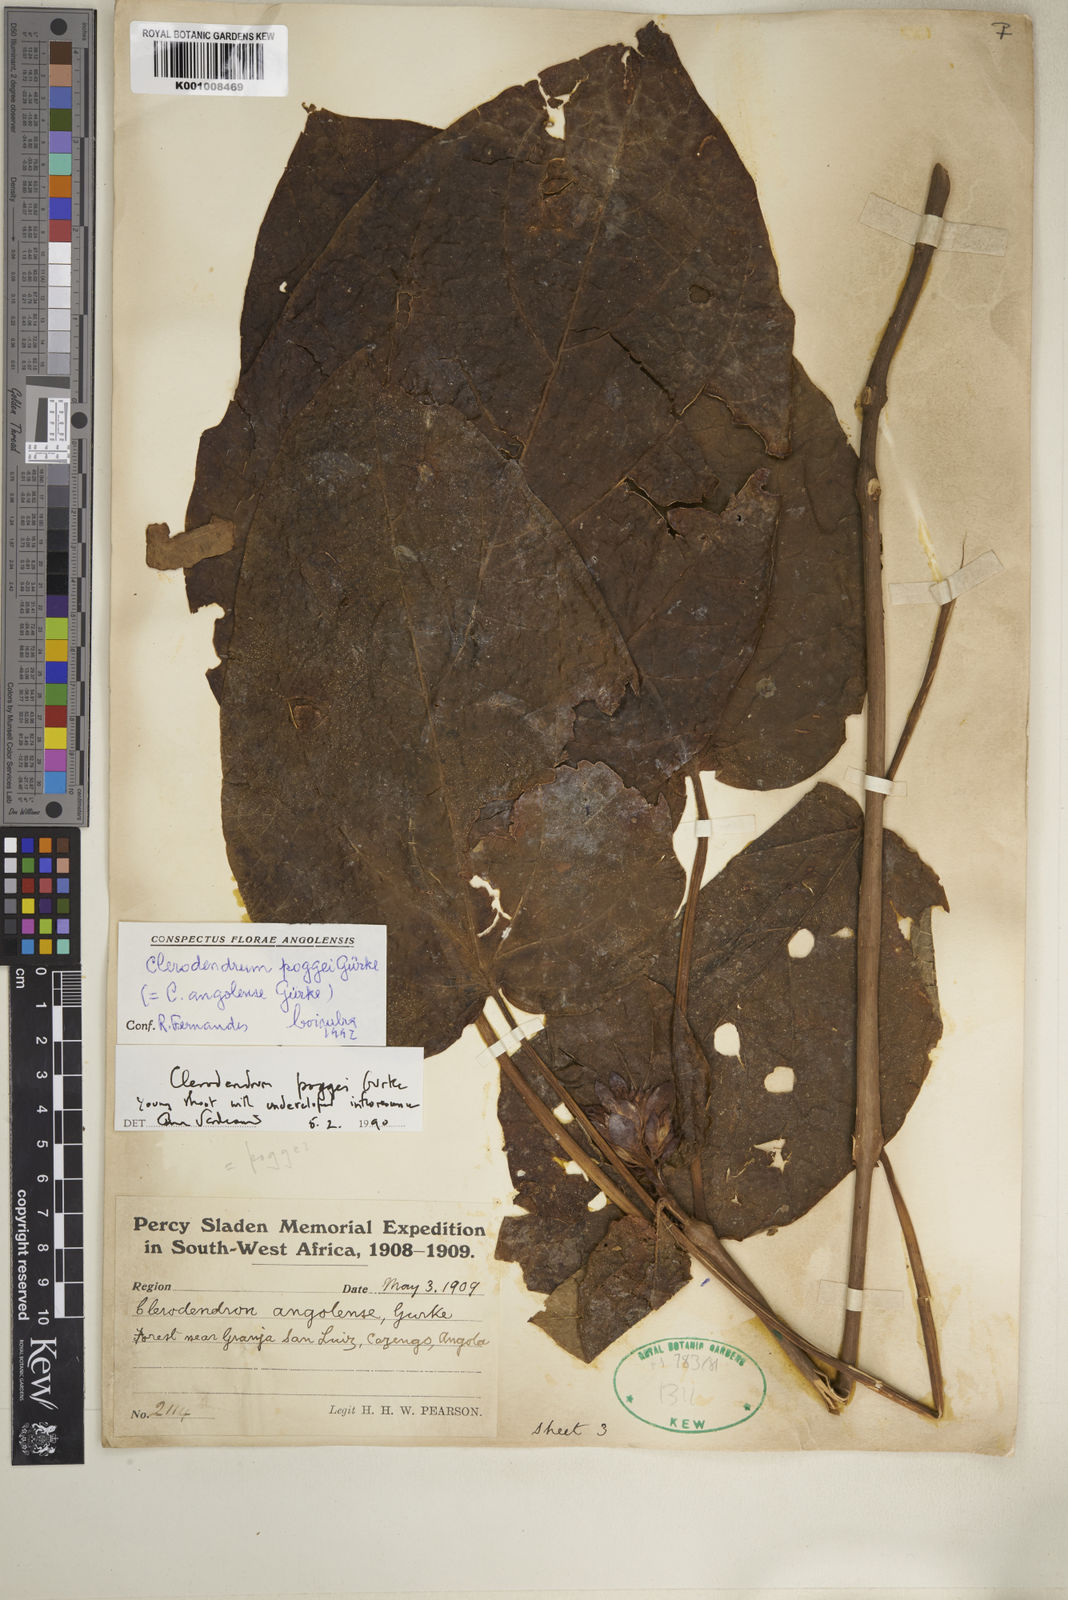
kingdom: Plantae
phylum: Tracheophyta
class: Magnoliopsida
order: Lamiales
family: Lamiaceae
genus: Clerodendrum
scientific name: Clerodendrum
